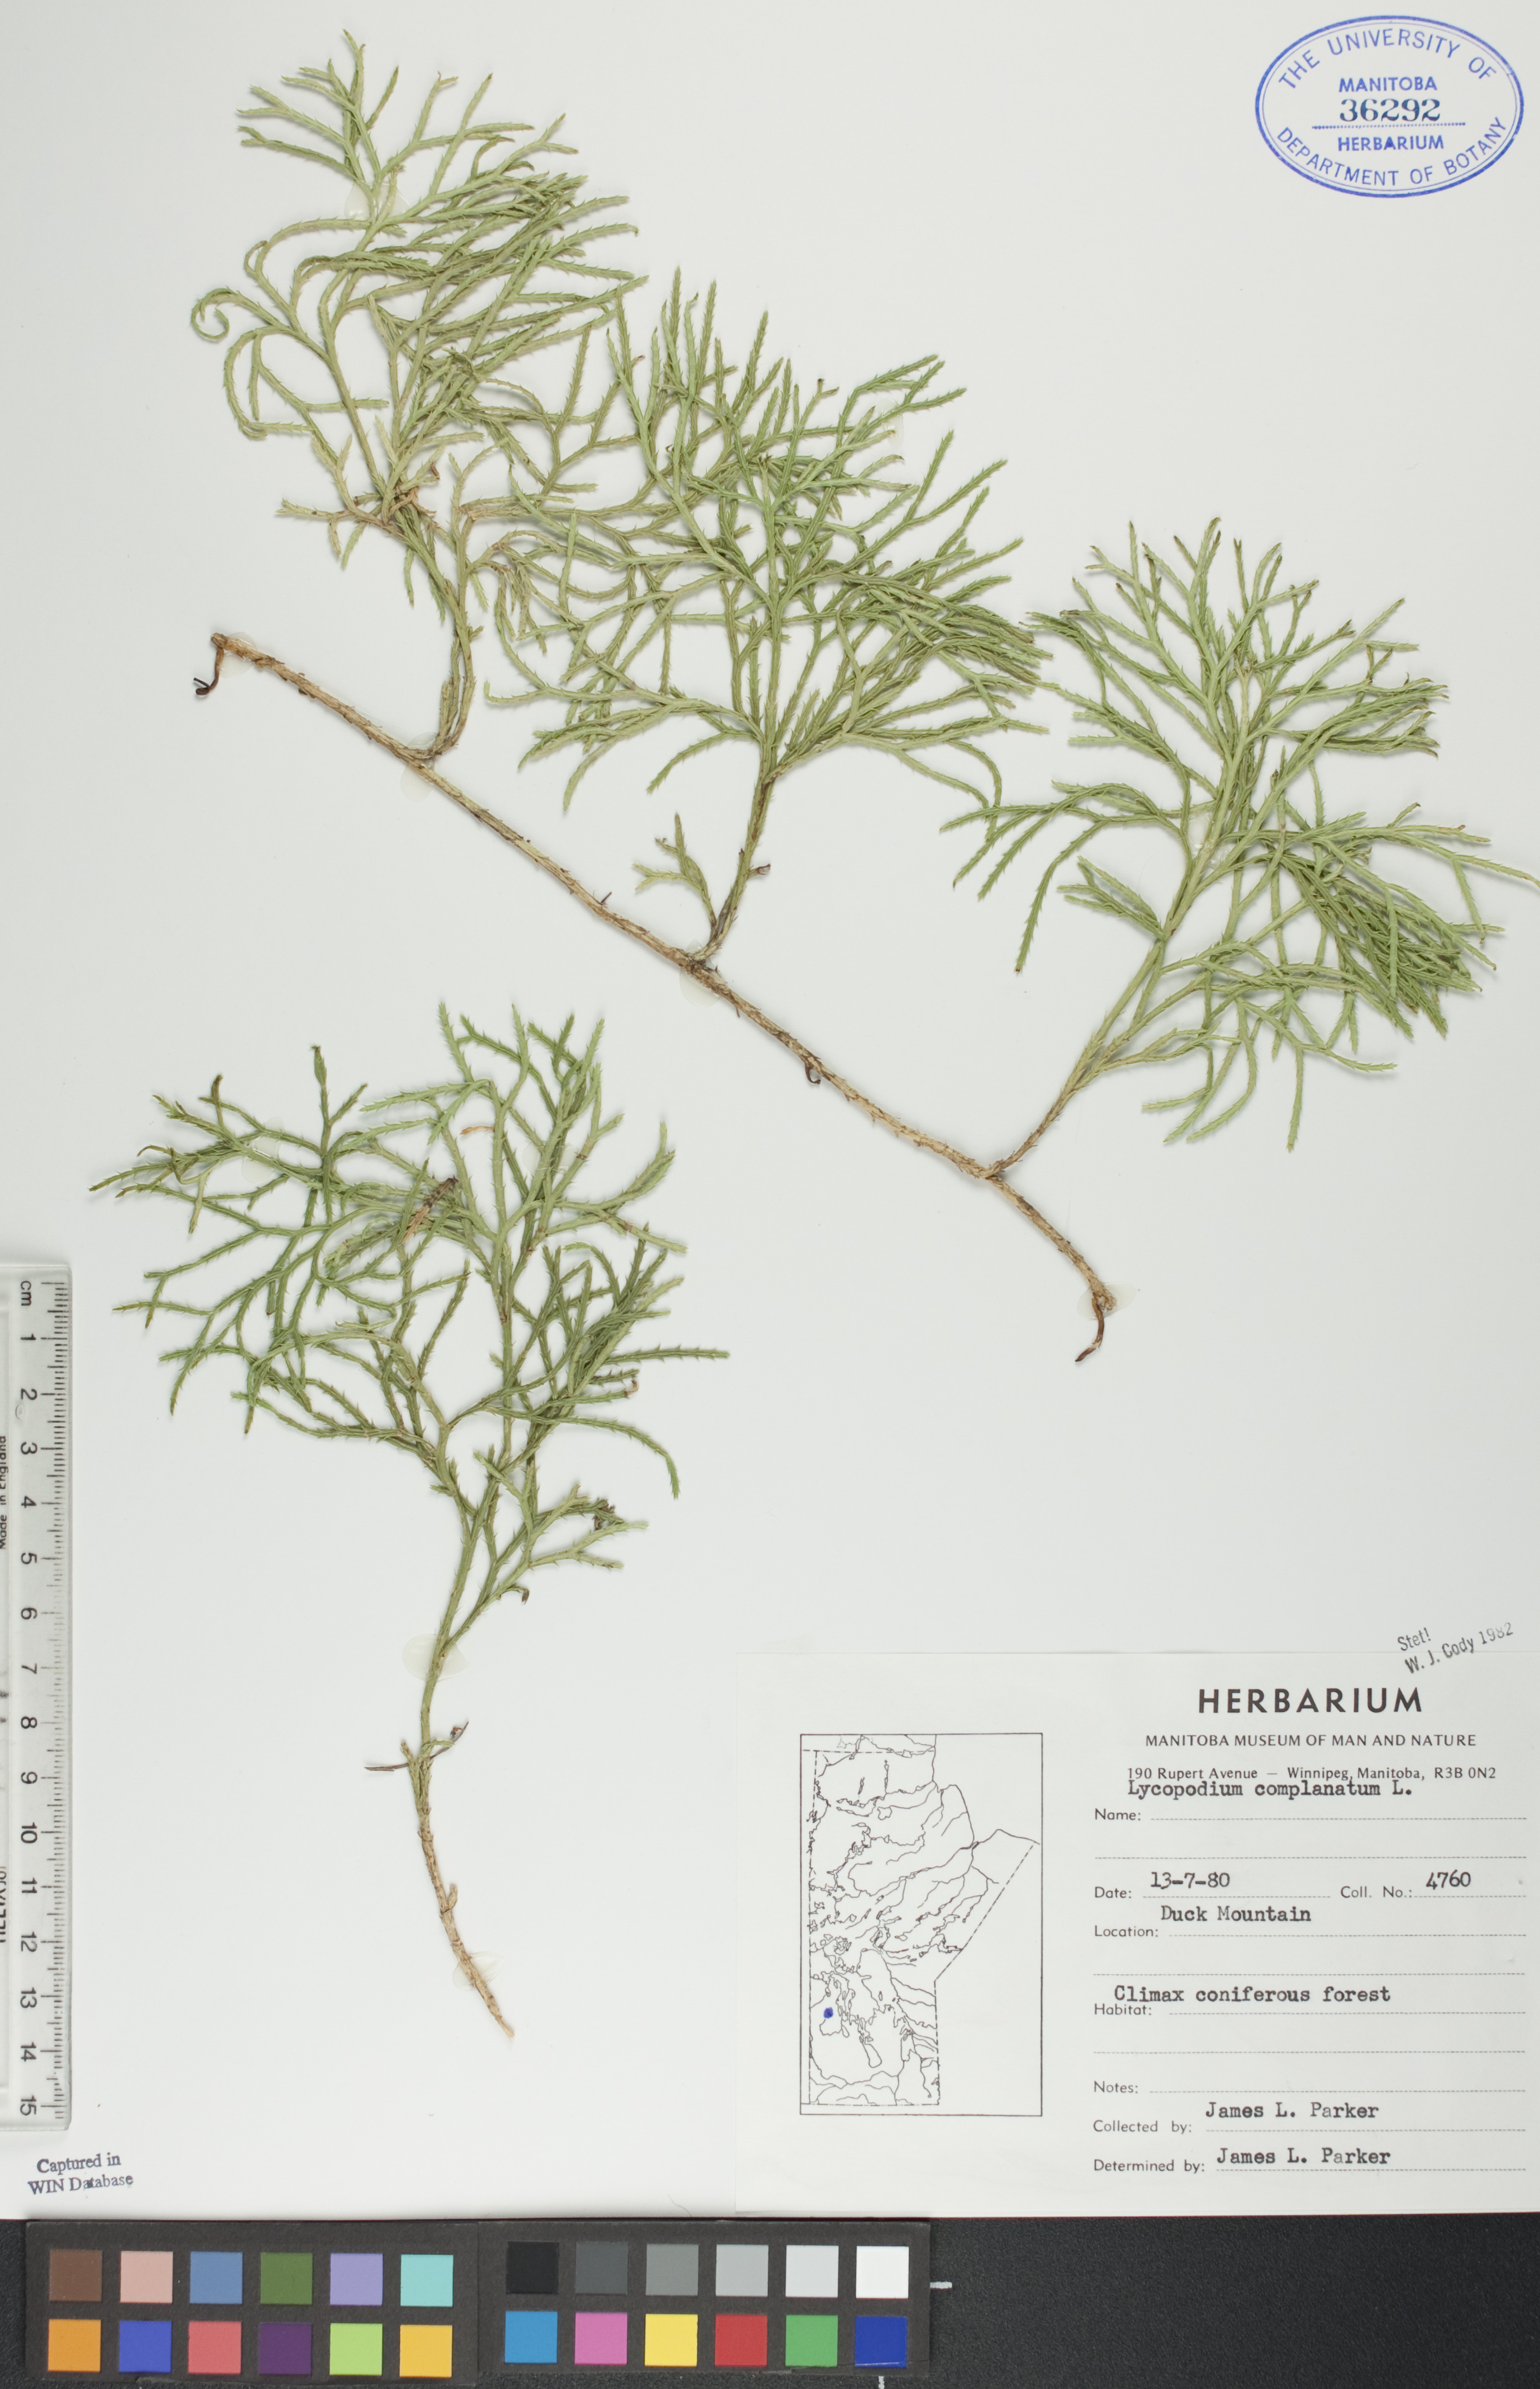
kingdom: Plantae
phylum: Tracheophyta
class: Lycopodiopsida
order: Lycopodiales
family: Lycopodiaceae
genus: Diphasiastrum
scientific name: Diphasiastrum
